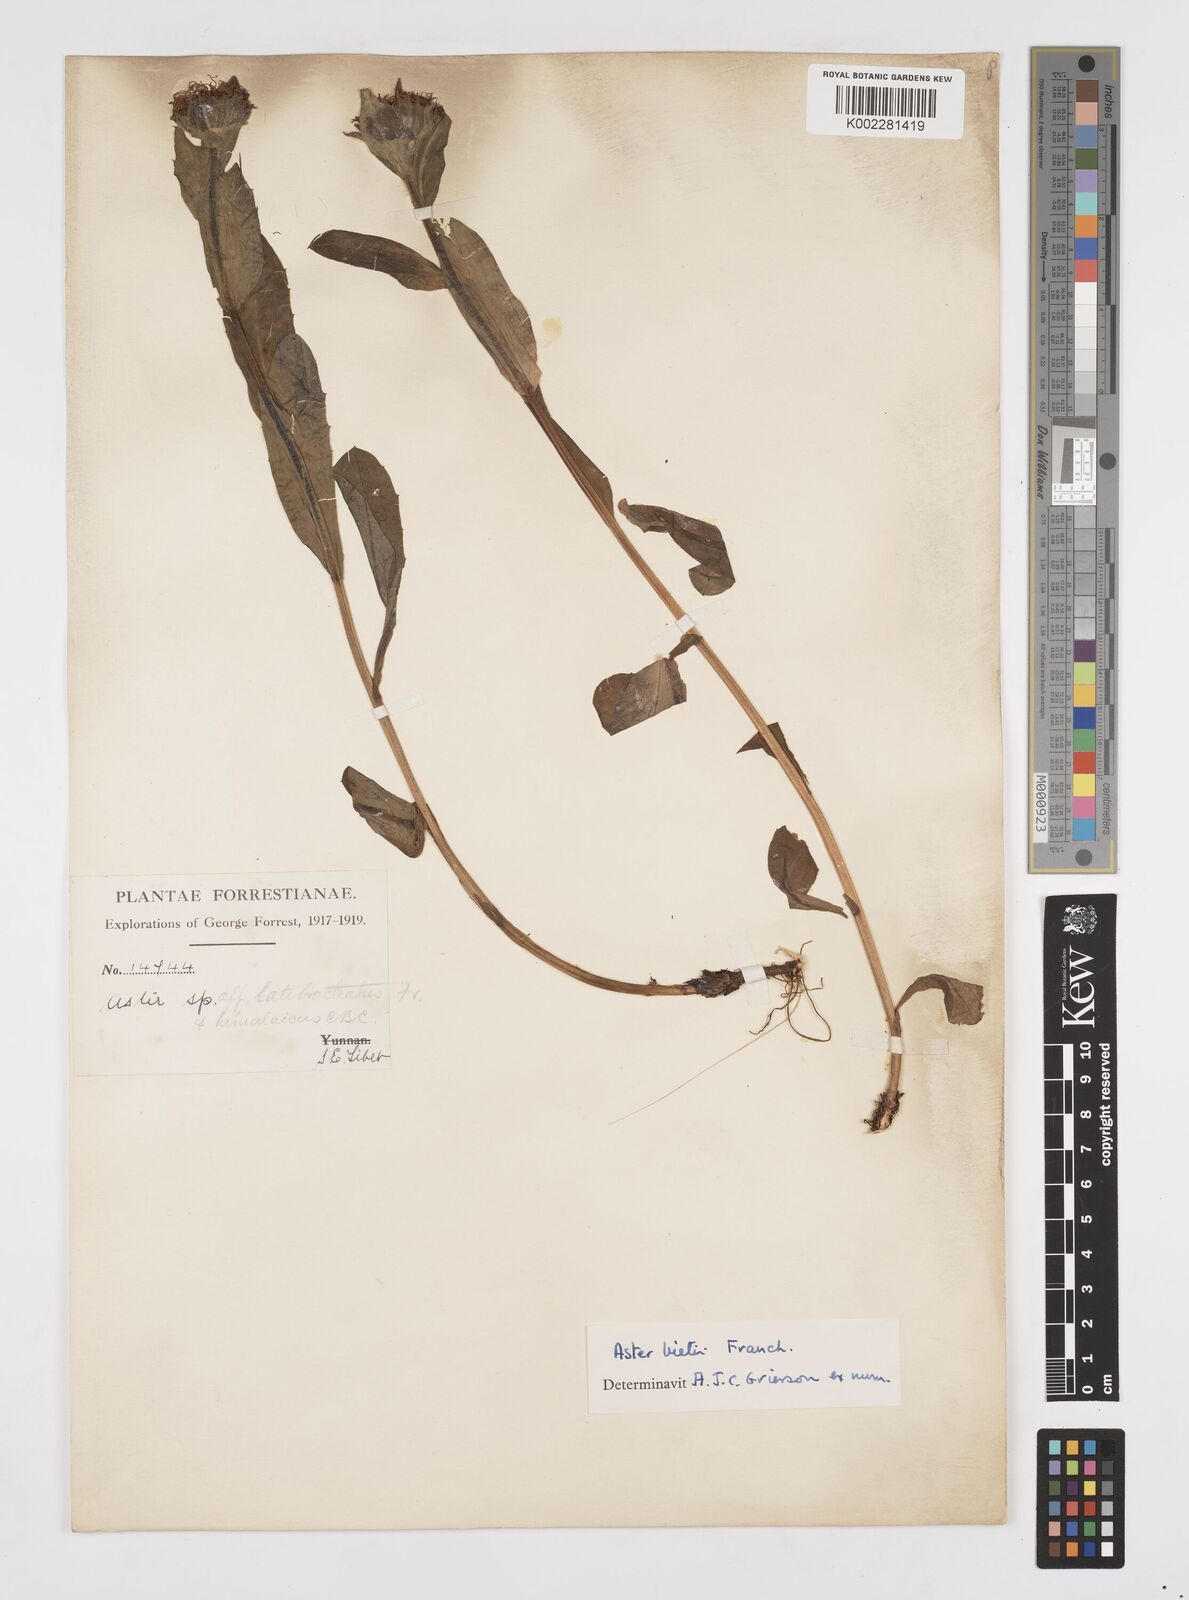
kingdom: Plantae
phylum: Tracheophyta
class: Magnoliopsida
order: Asterales
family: Asteraceae
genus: Tibetiodes
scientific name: Tibetiodes bietii
